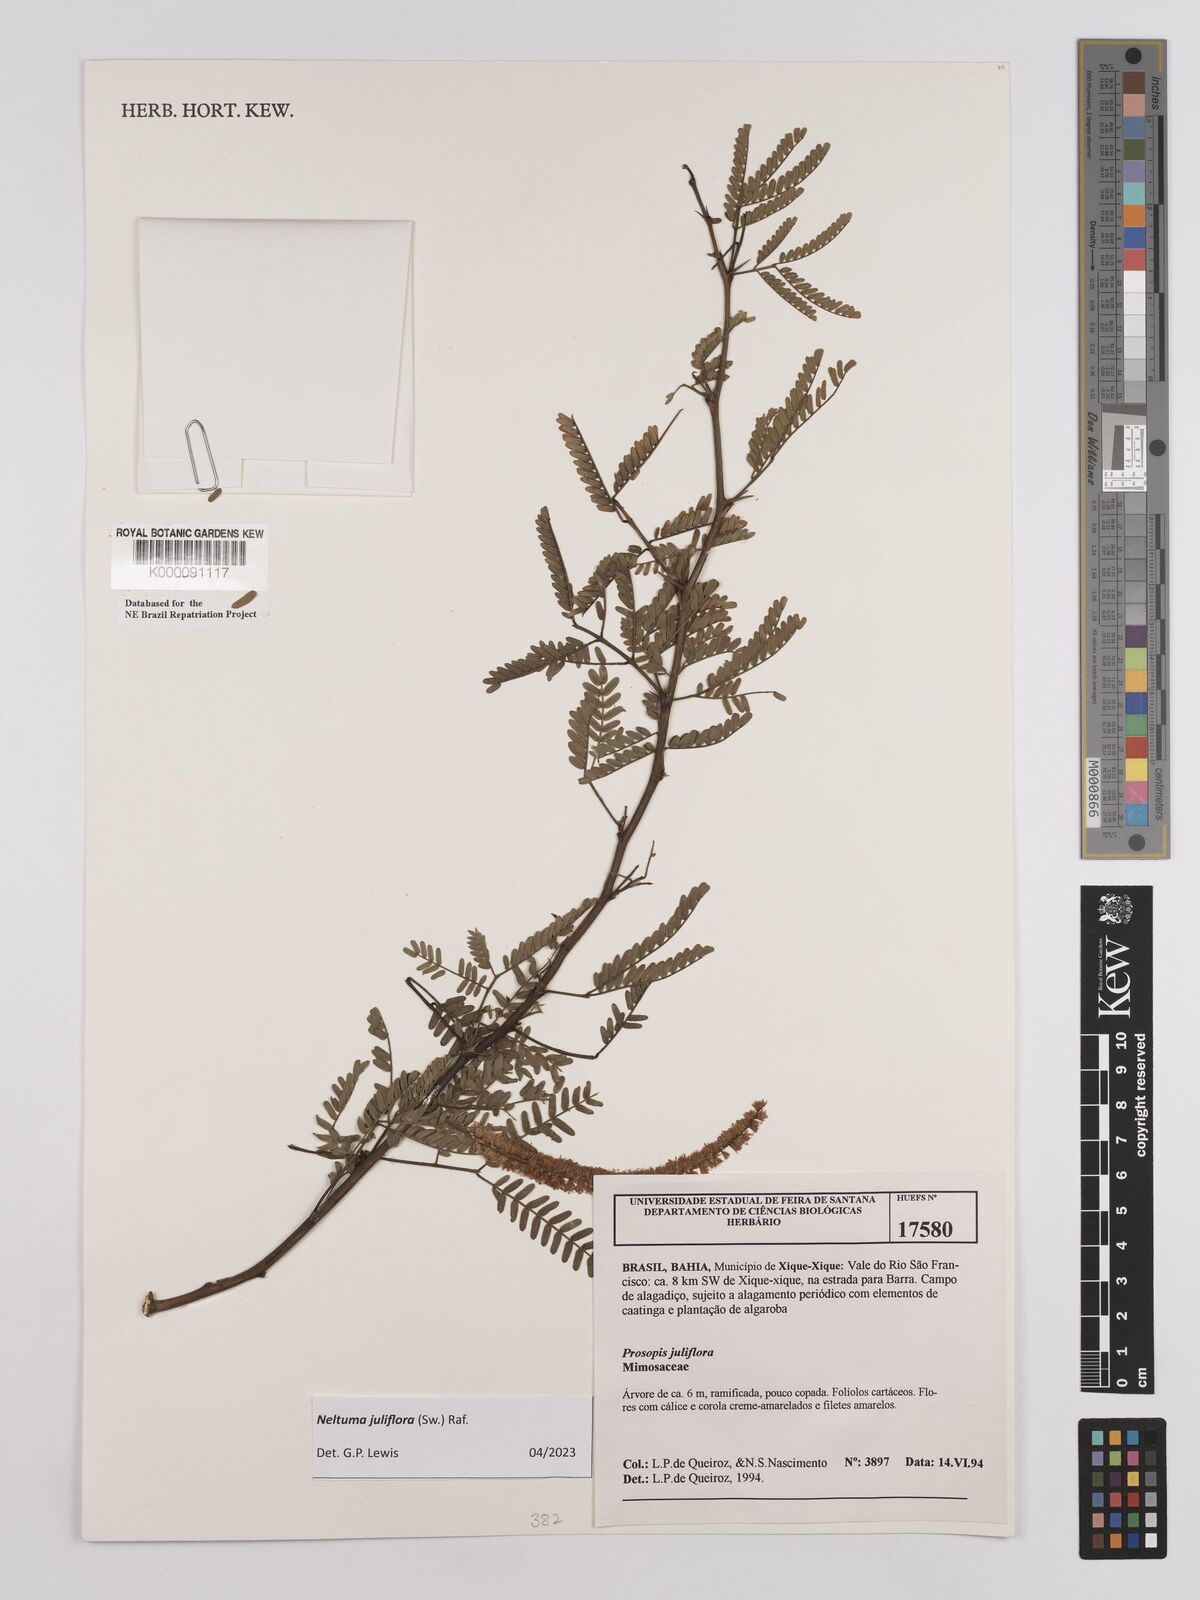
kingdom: Plantae
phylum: Tracheophyta
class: Magnoliopsida
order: Fabales
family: Fabaceae
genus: Prosopis
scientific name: Prosopis juliflora
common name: Mesquite
